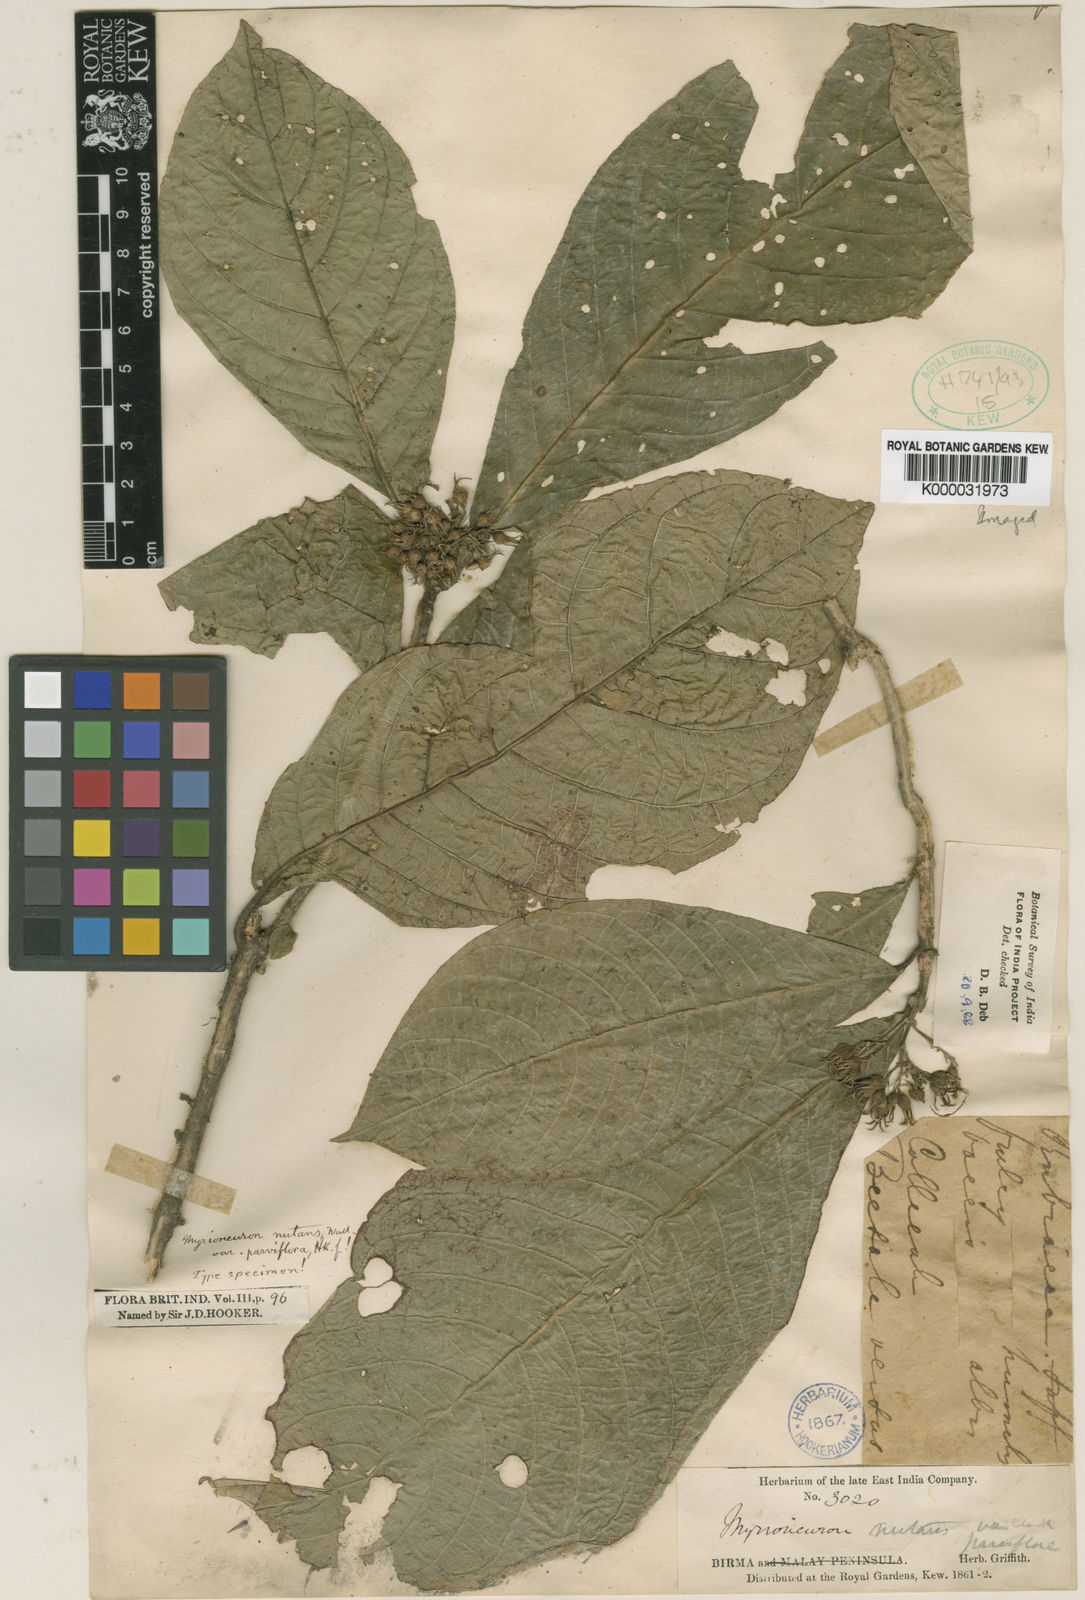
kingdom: Plantae
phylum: Tracheophyta
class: Magnoliopsida
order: Gentianales
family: Rubiaceae
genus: Mycetia
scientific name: Mycetia parviflora
